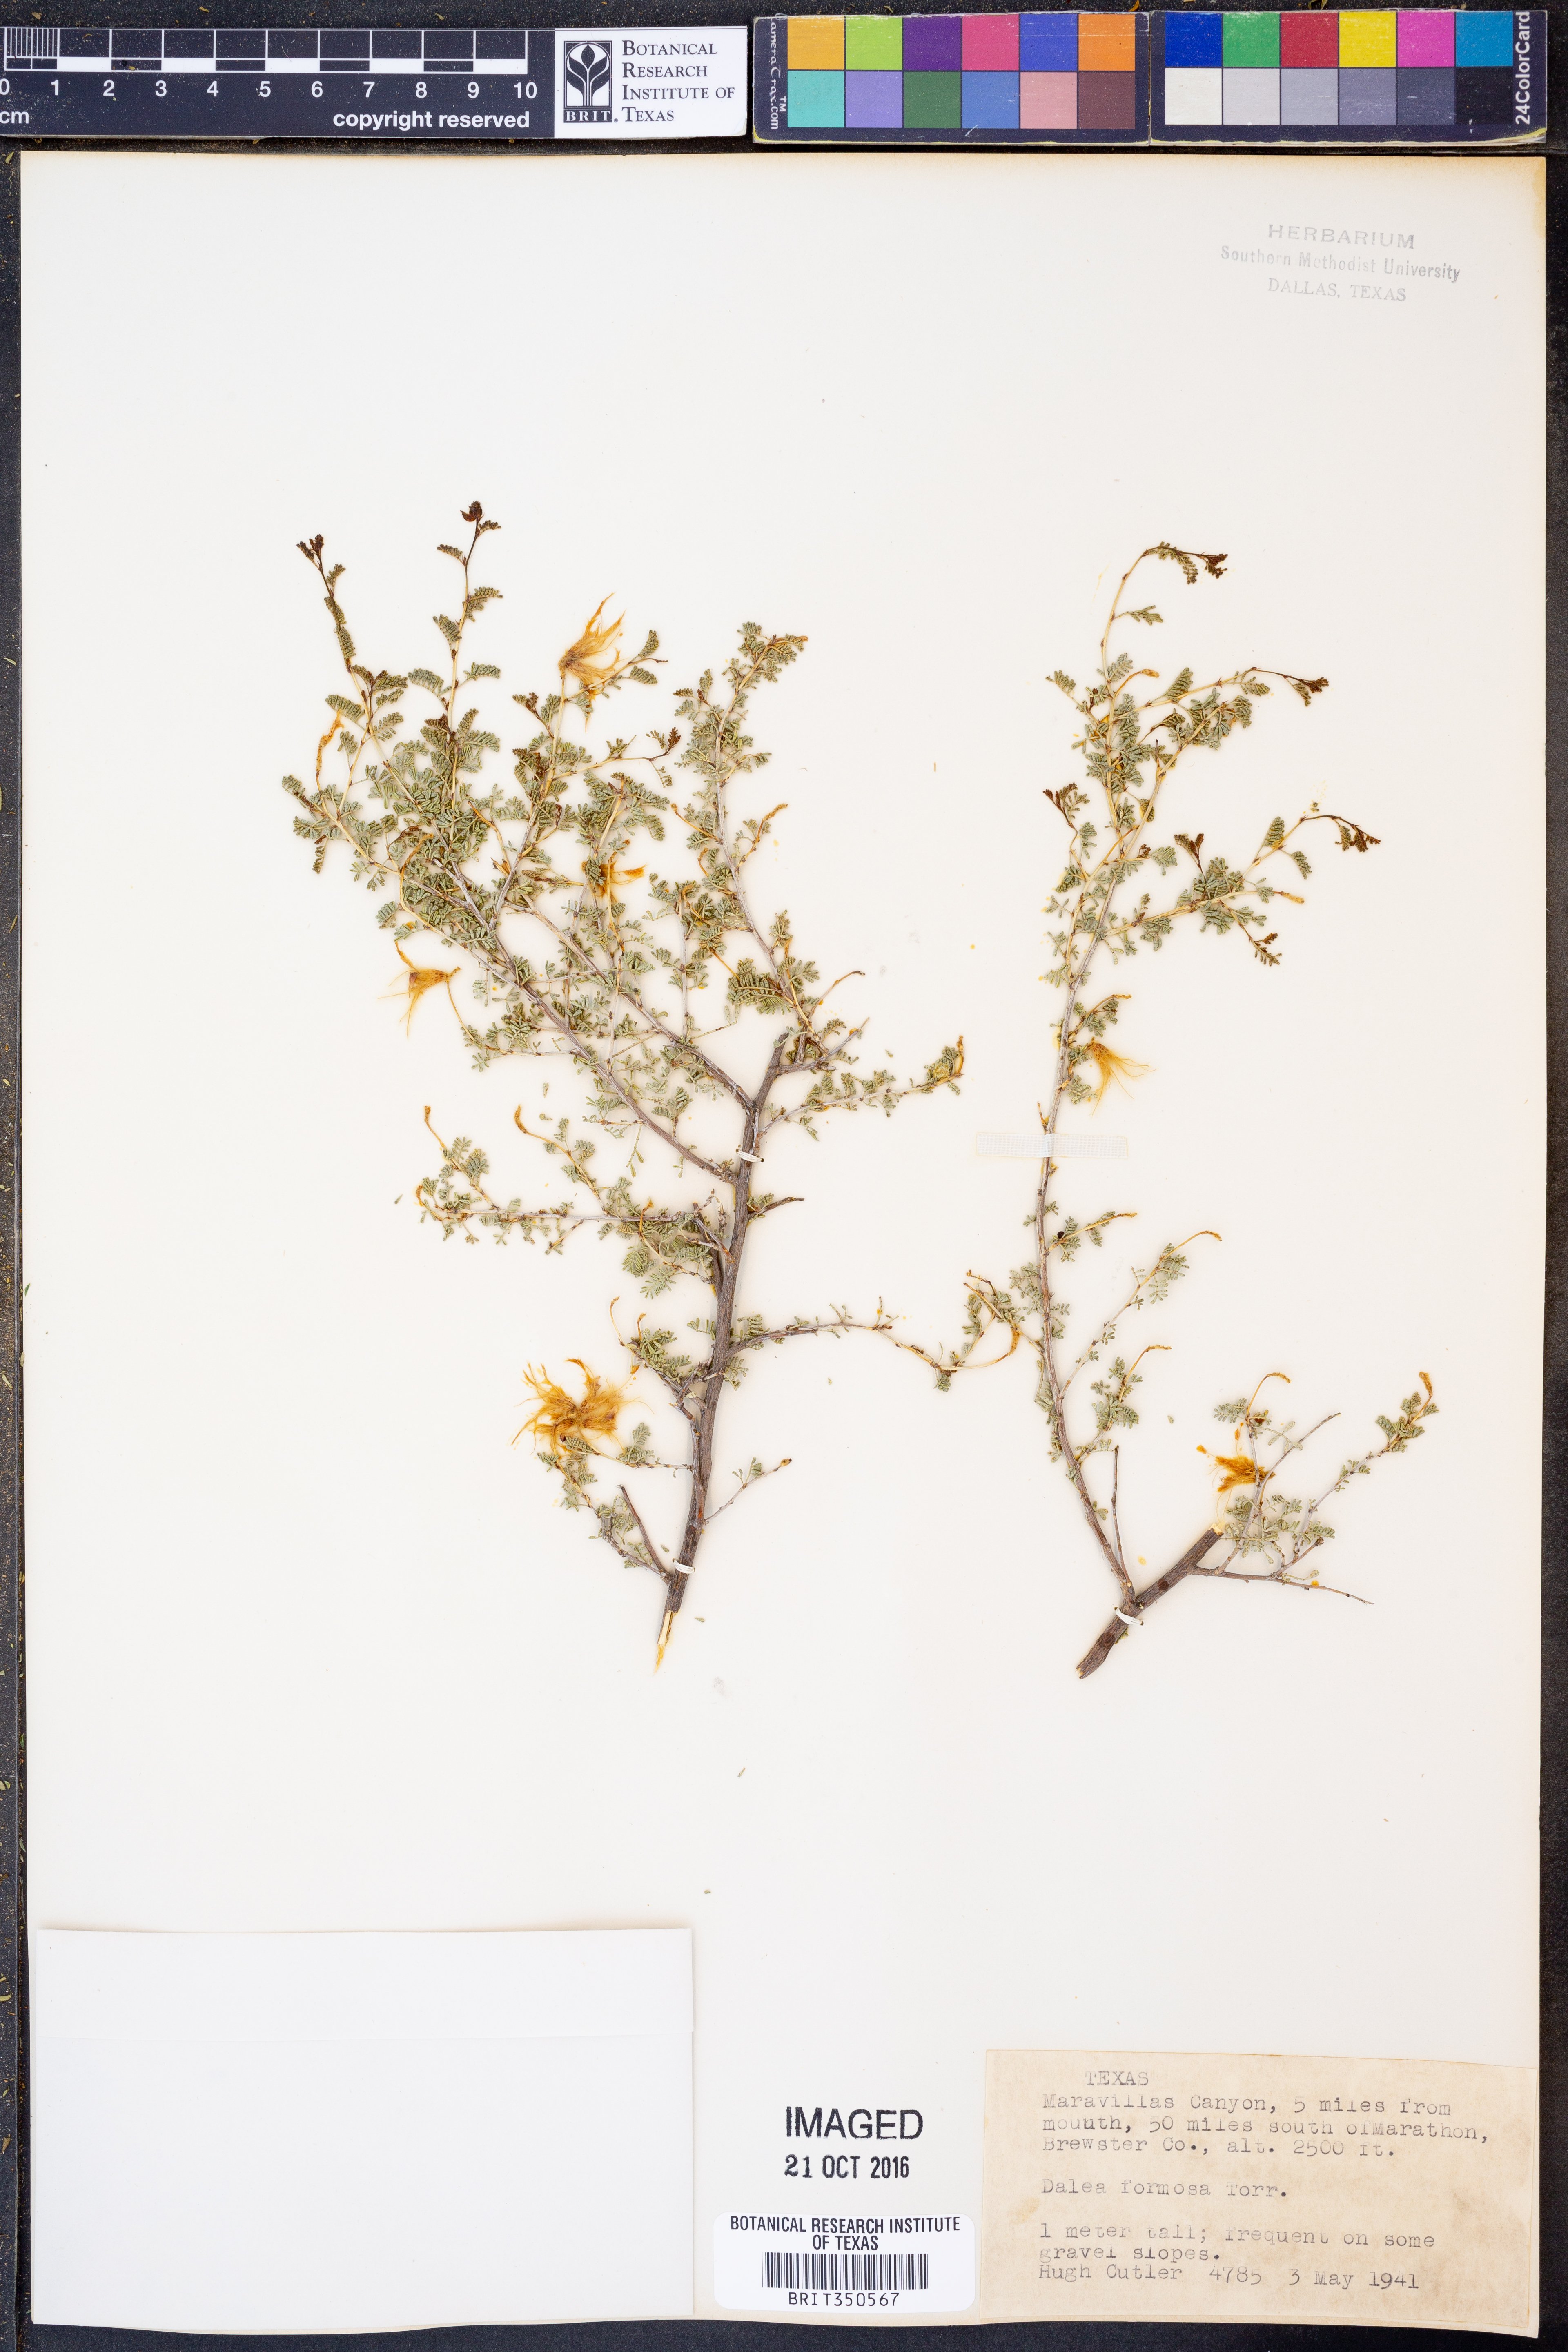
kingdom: Plantae
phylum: Tracheophyta
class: Magnoliopsida
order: Fabales
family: Fabaceae
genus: Dalea
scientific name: Dalea formosa
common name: Feather-plume dalea
